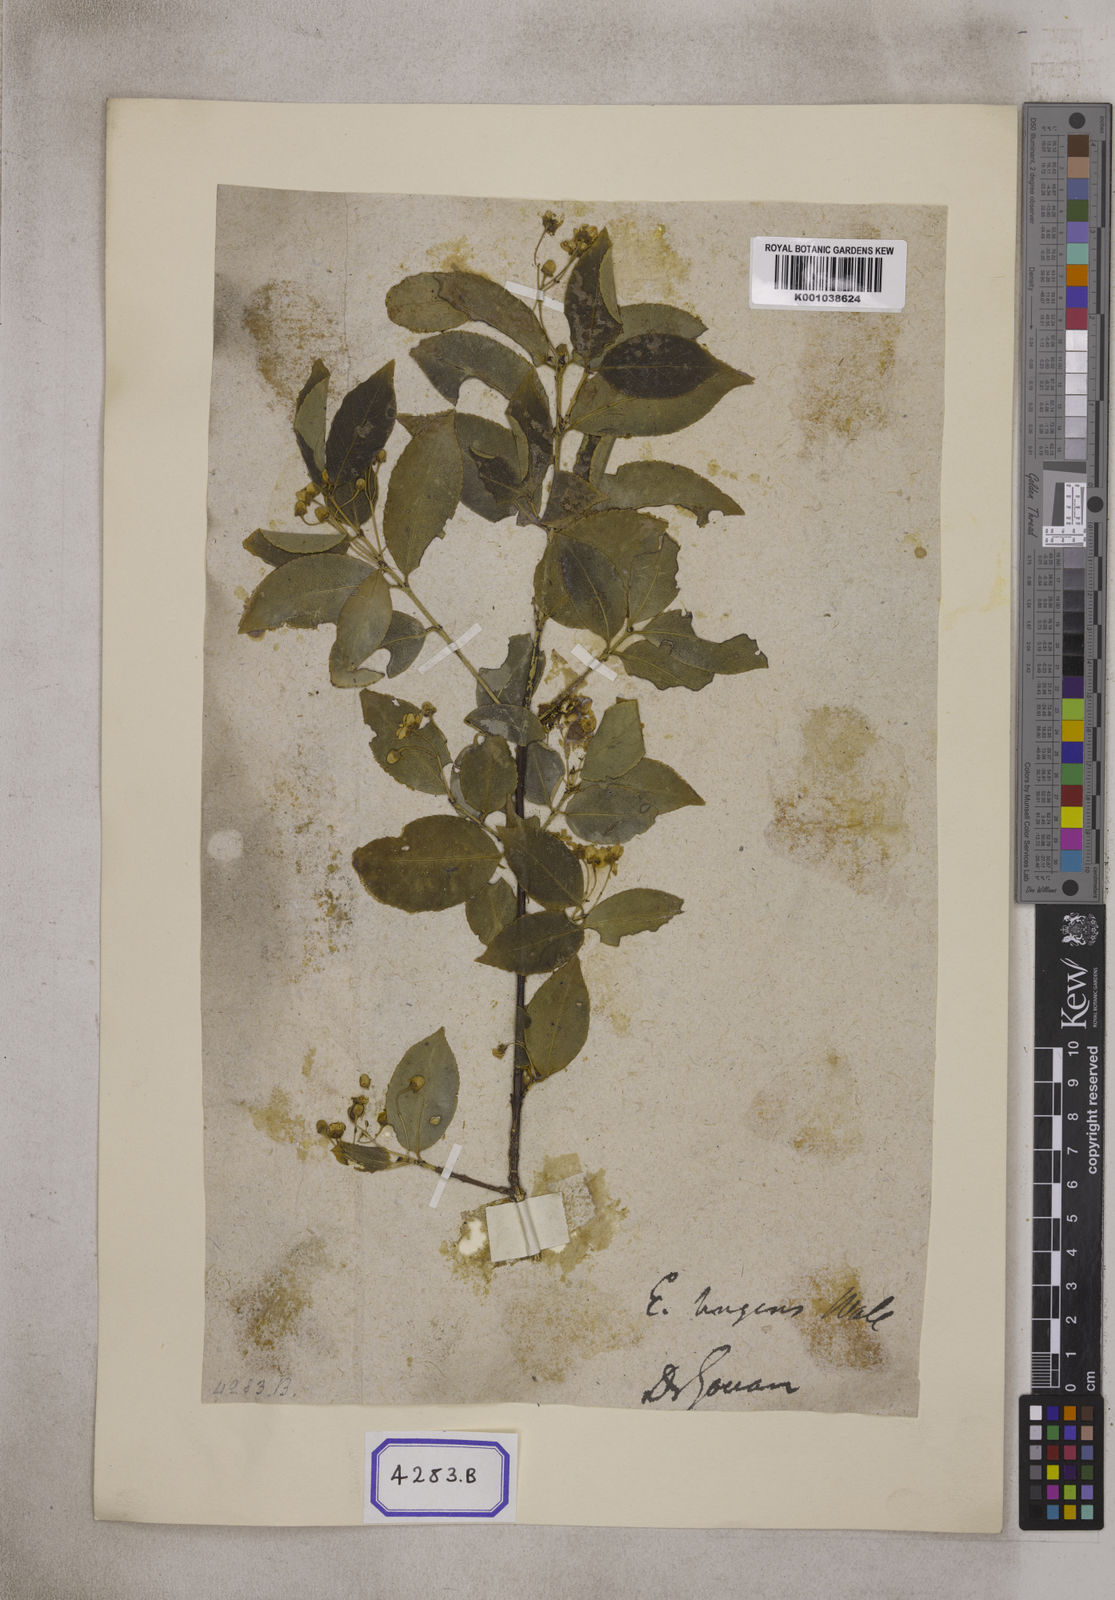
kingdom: Plantae
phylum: Tracheophyta
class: Magnoliopsida
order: Celastrales
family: Celastraceae
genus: Euonymus
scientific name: Euonymus tingens
